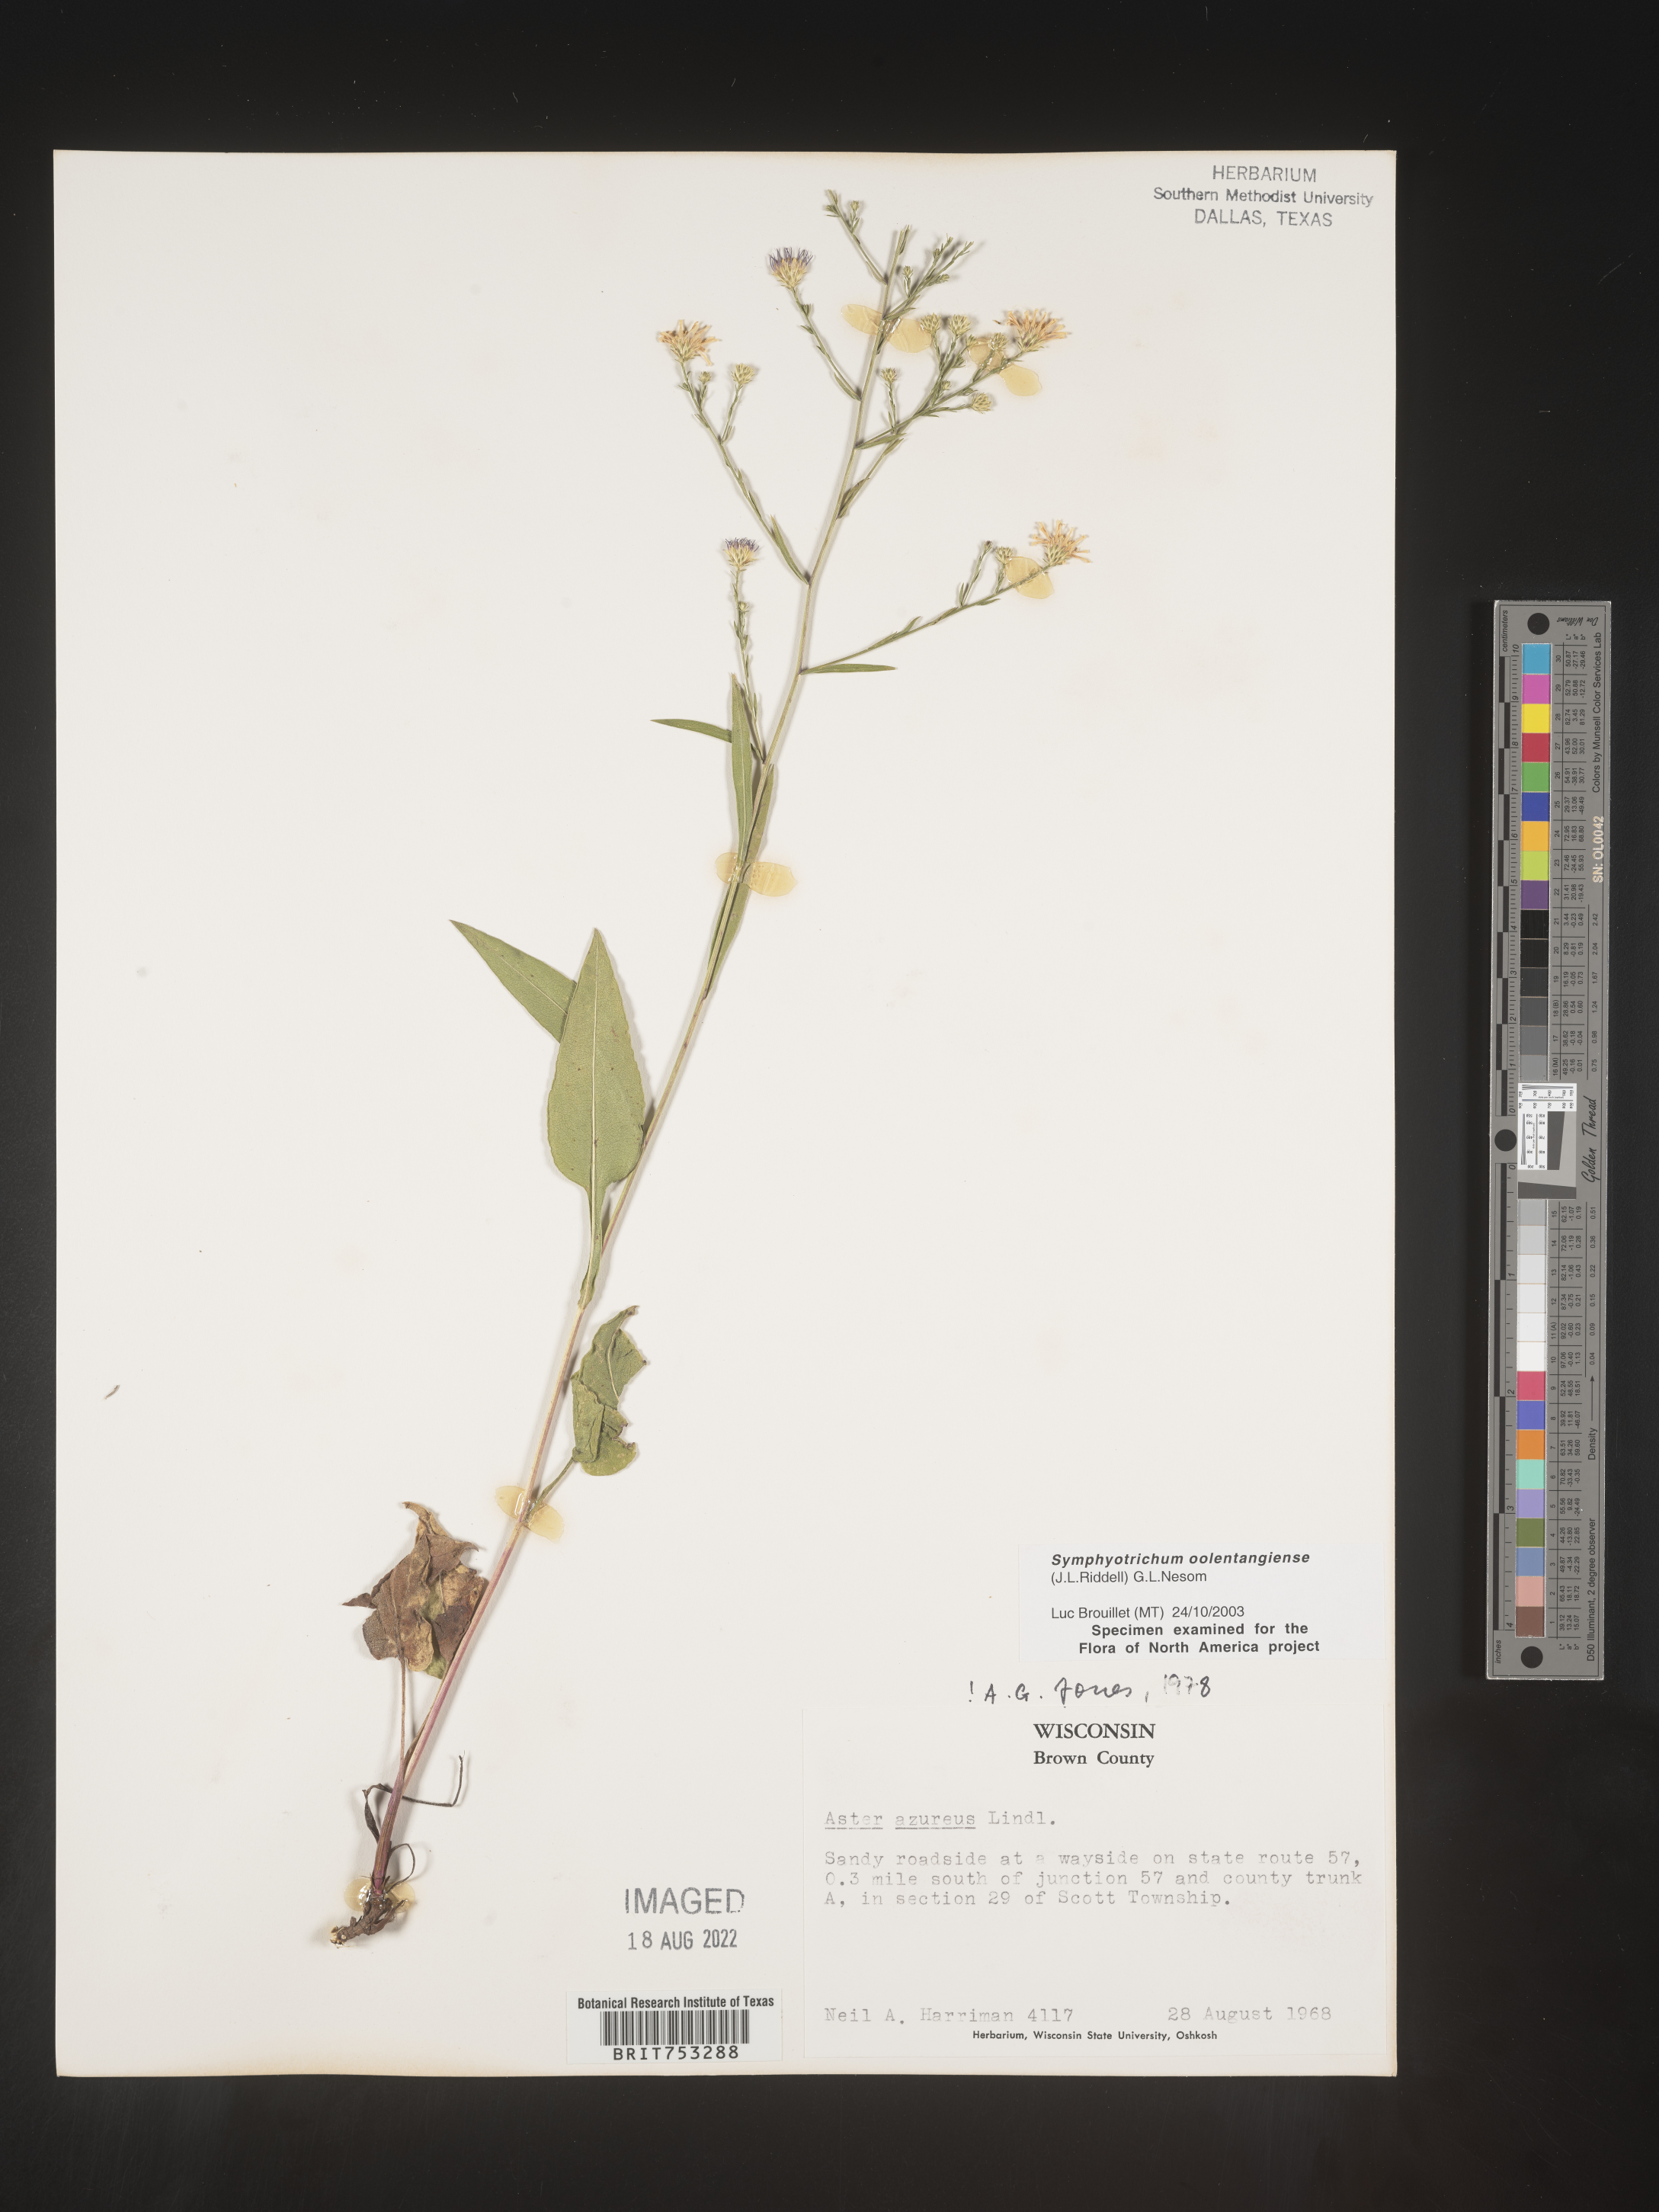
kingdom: Plantae
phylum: Tracheophyta
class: Magnoliopsida
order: Asterales
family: Asteraceae
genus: Symphyotrichum
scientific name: Symphyotrichum oolentangiense
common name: Azure aster
